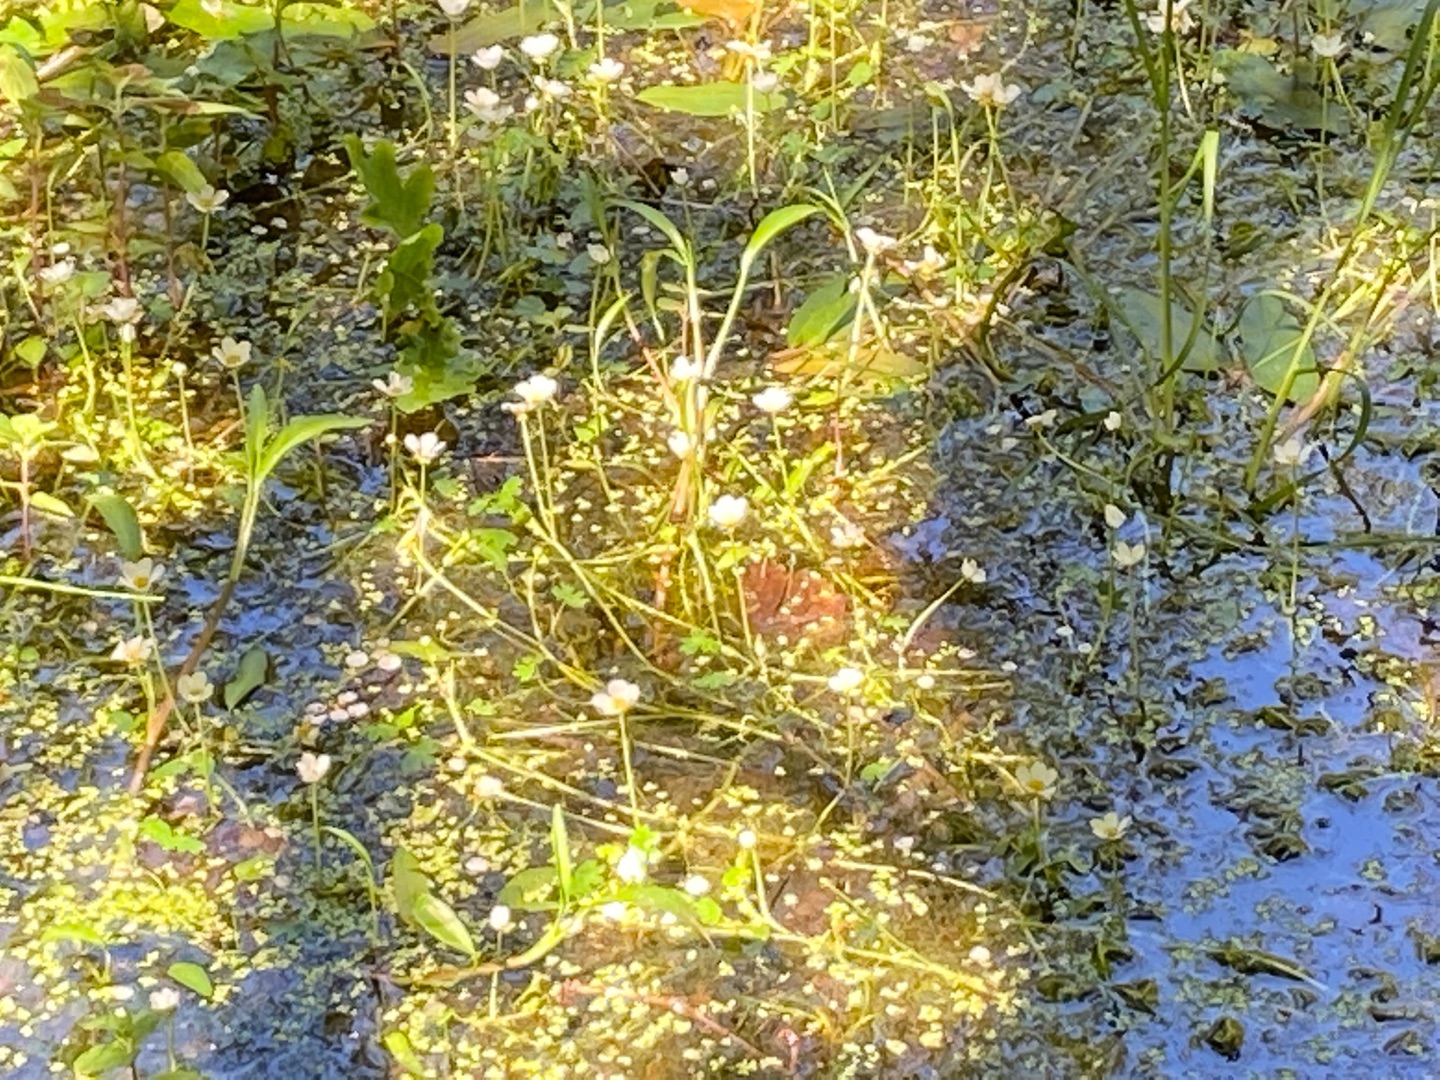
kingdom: Plantae
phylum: Tracheophyta
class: Magnoliopsida
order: Ranunculales
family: Ranunculaceae
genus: Ranunculus
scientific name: Ranunculus
